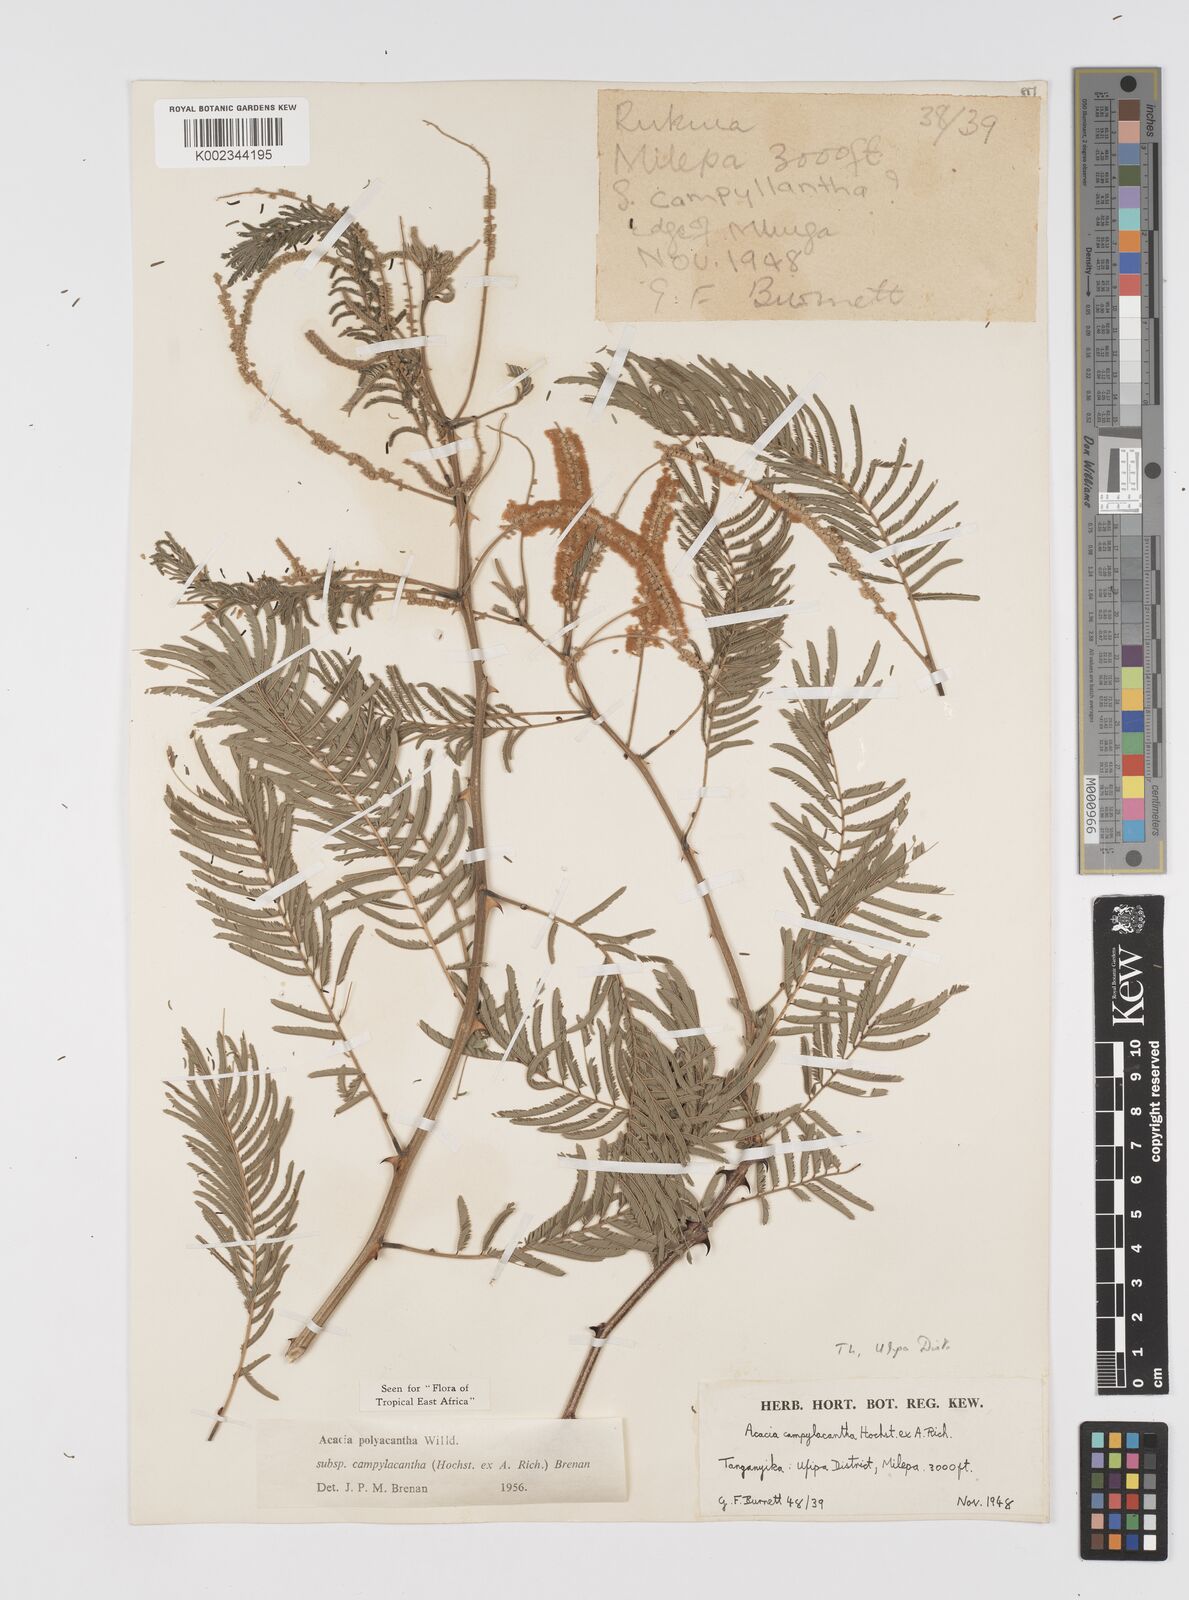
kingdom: Plantae
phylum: Tracheophyta
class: Magnoliopsida
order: Fabales
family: Fabaceae
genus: Senegalia
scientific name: Senegalia polyacantha
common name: Whitethorn
